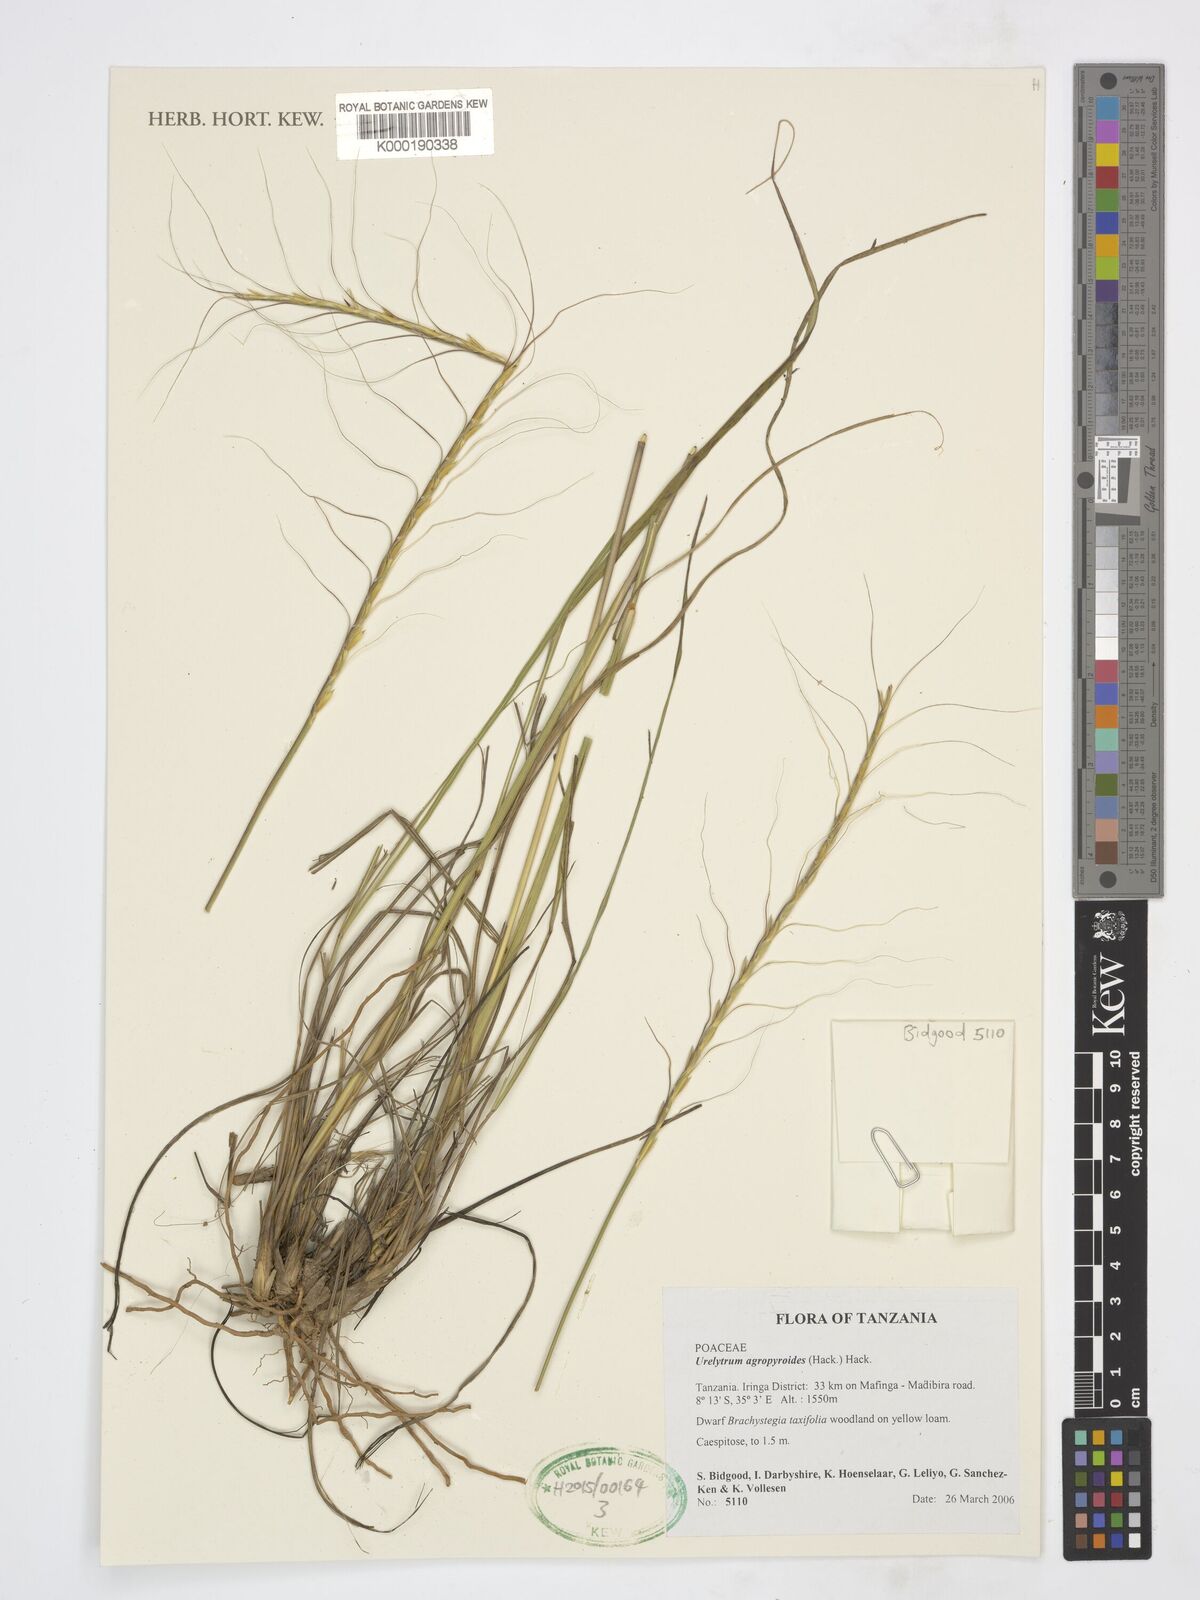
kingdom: Plantae
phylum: Tracheophyta
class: Liliopsida
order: Poales
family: Poaceae
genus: Urelytrum
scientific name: Urelytrum agropyroides
